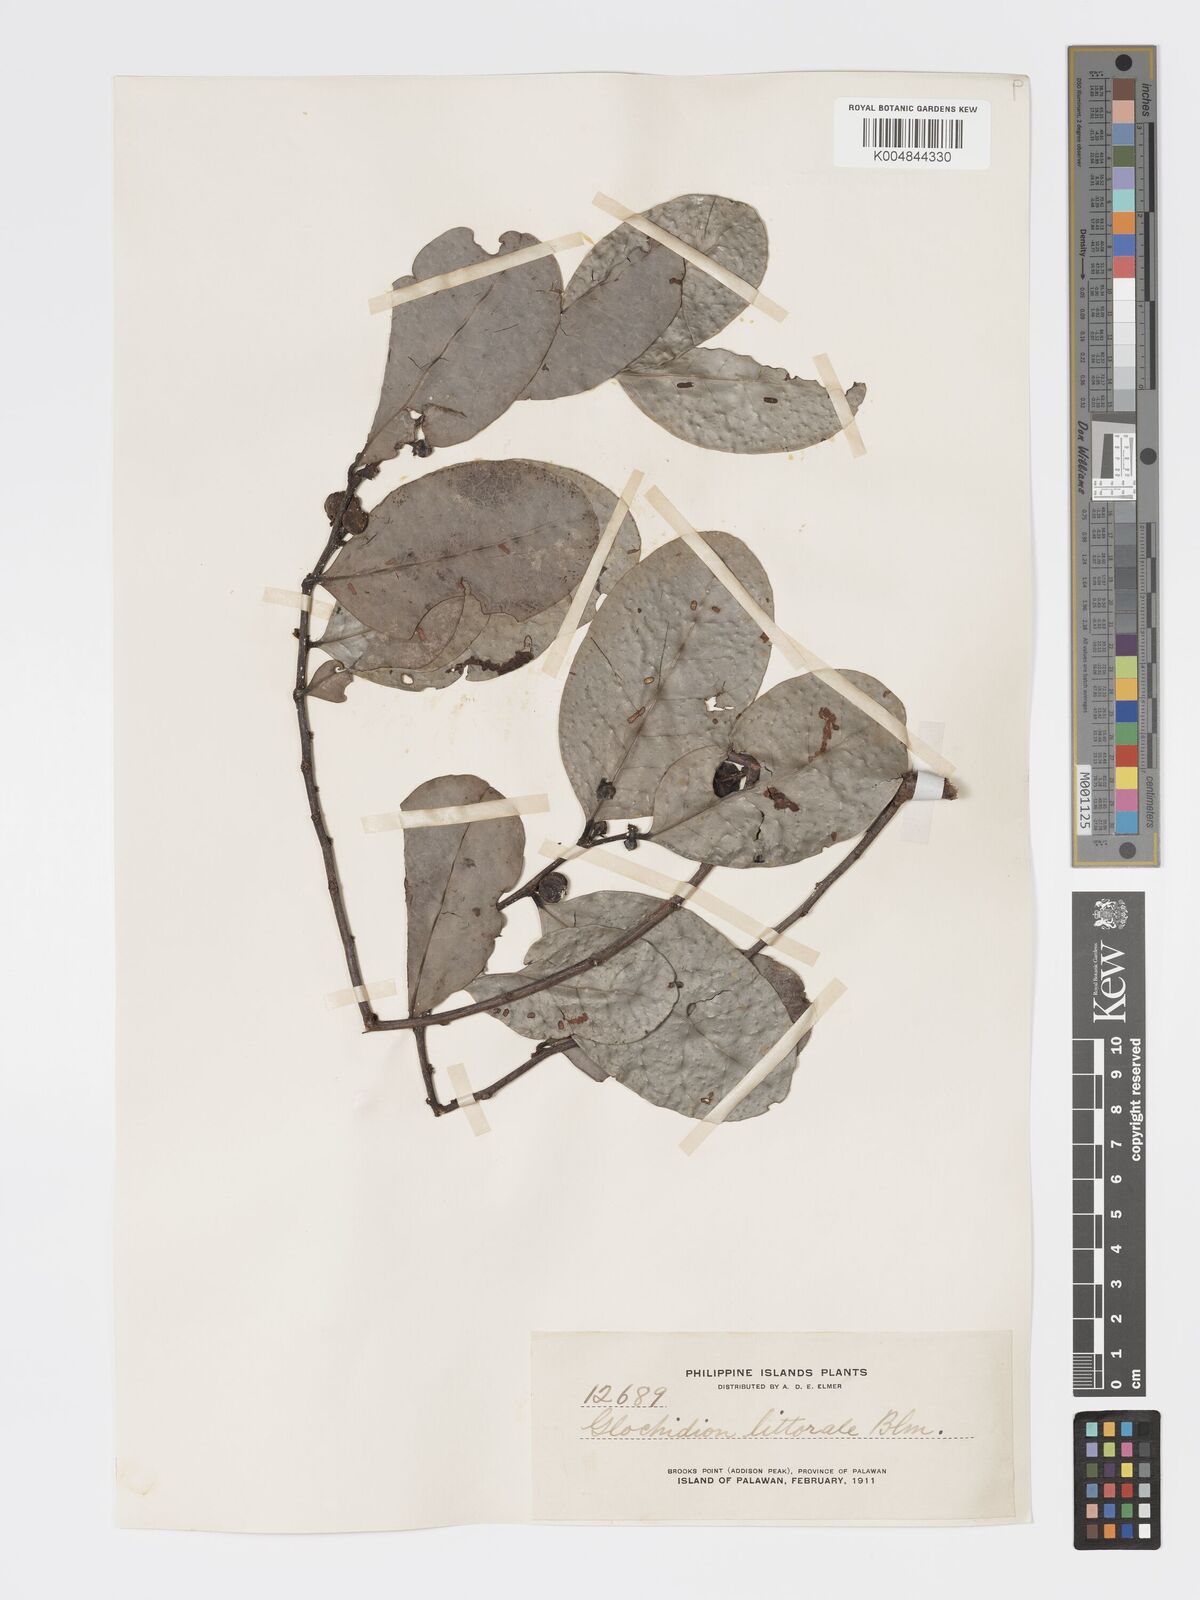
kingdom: Plantae
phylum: Tracheophyta
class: Magnoliopsida
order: Malpighiales
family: Phyllanthaceae
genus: Glochidion
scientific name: Glochidion
